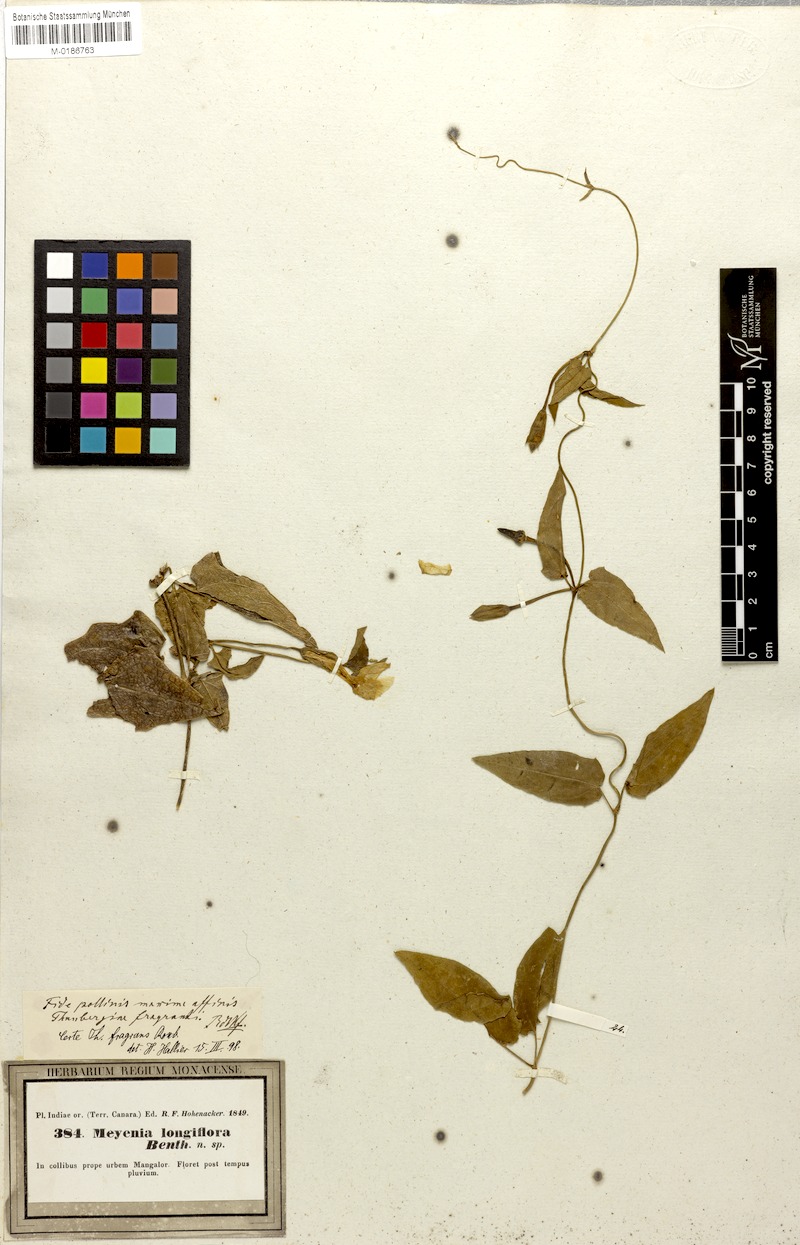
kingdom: Plantae
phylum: Tracheophyta
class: Magnoliopsida
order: Lamiales
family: Acanthaceae
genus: Thunbergia
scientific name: Thunbergia fragrans
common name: Whitelady
